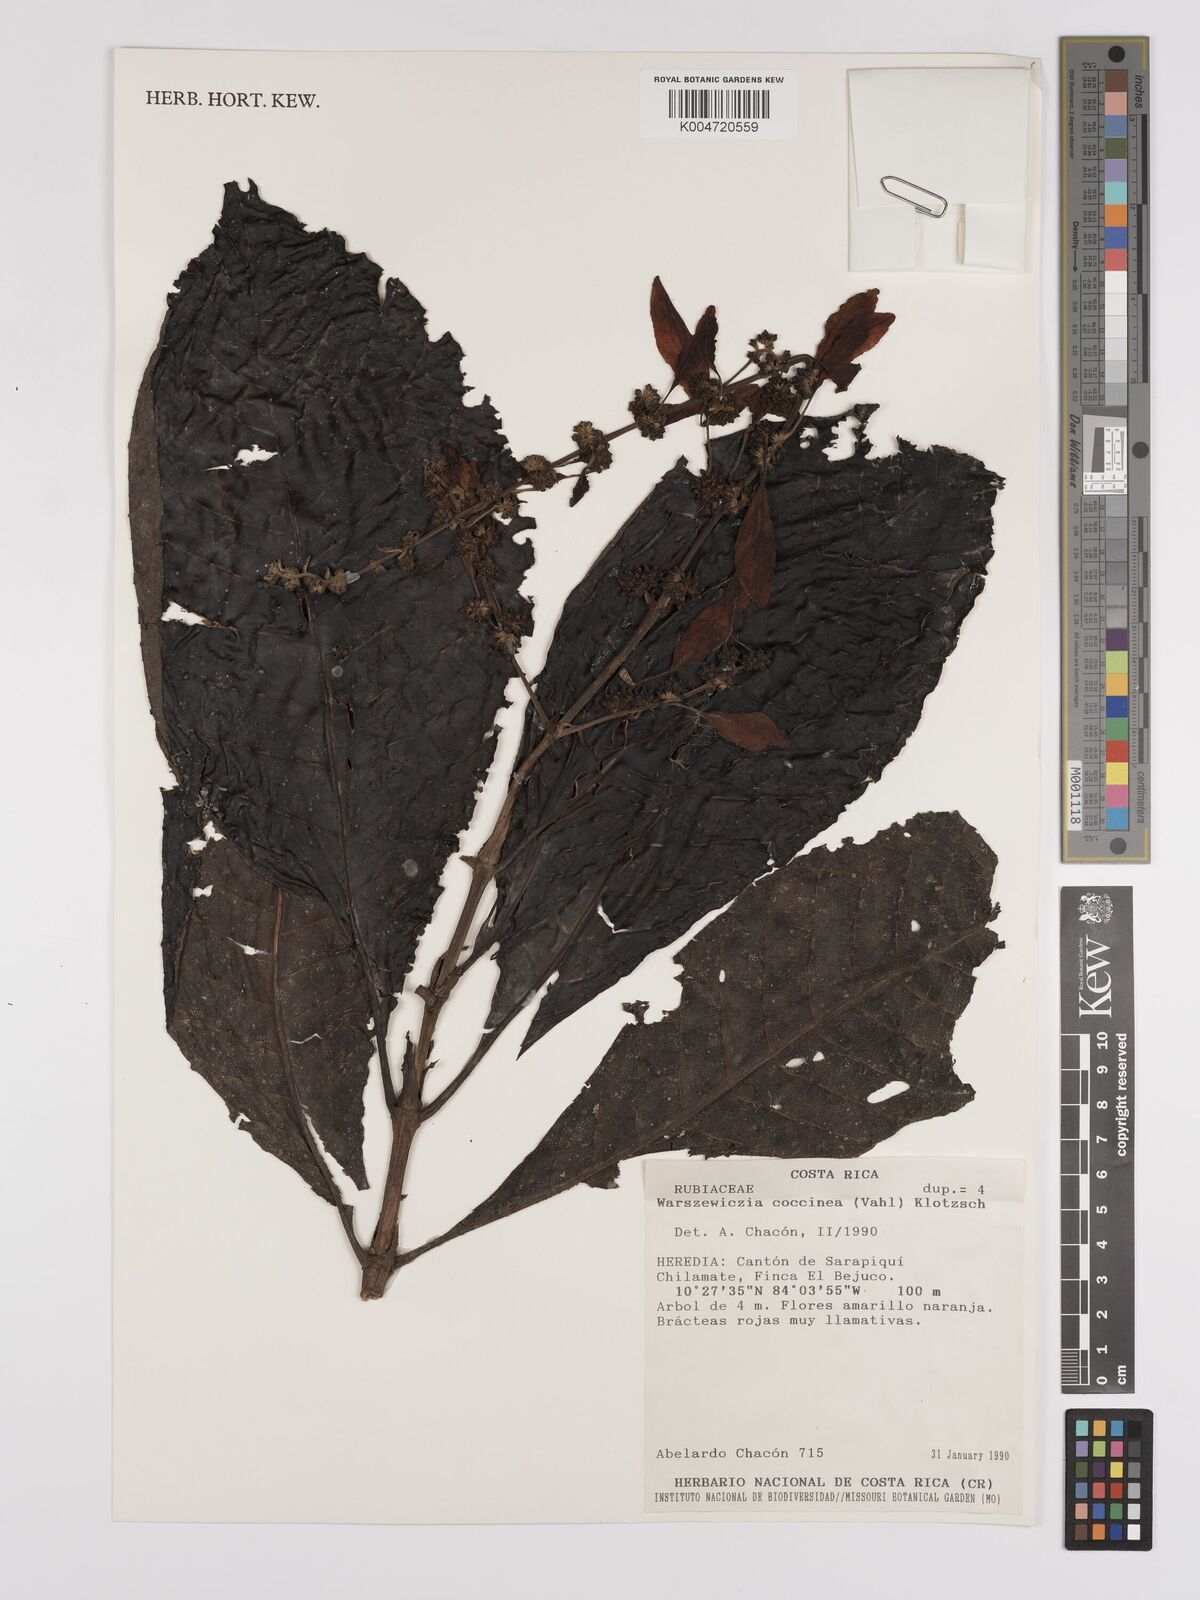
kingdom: Plantae
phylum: Tracheophyta
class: Magnoliopsida
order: Gentianales
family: Rubiaceae
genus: Warszewiczia
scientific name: Warszewiczia coccinea
